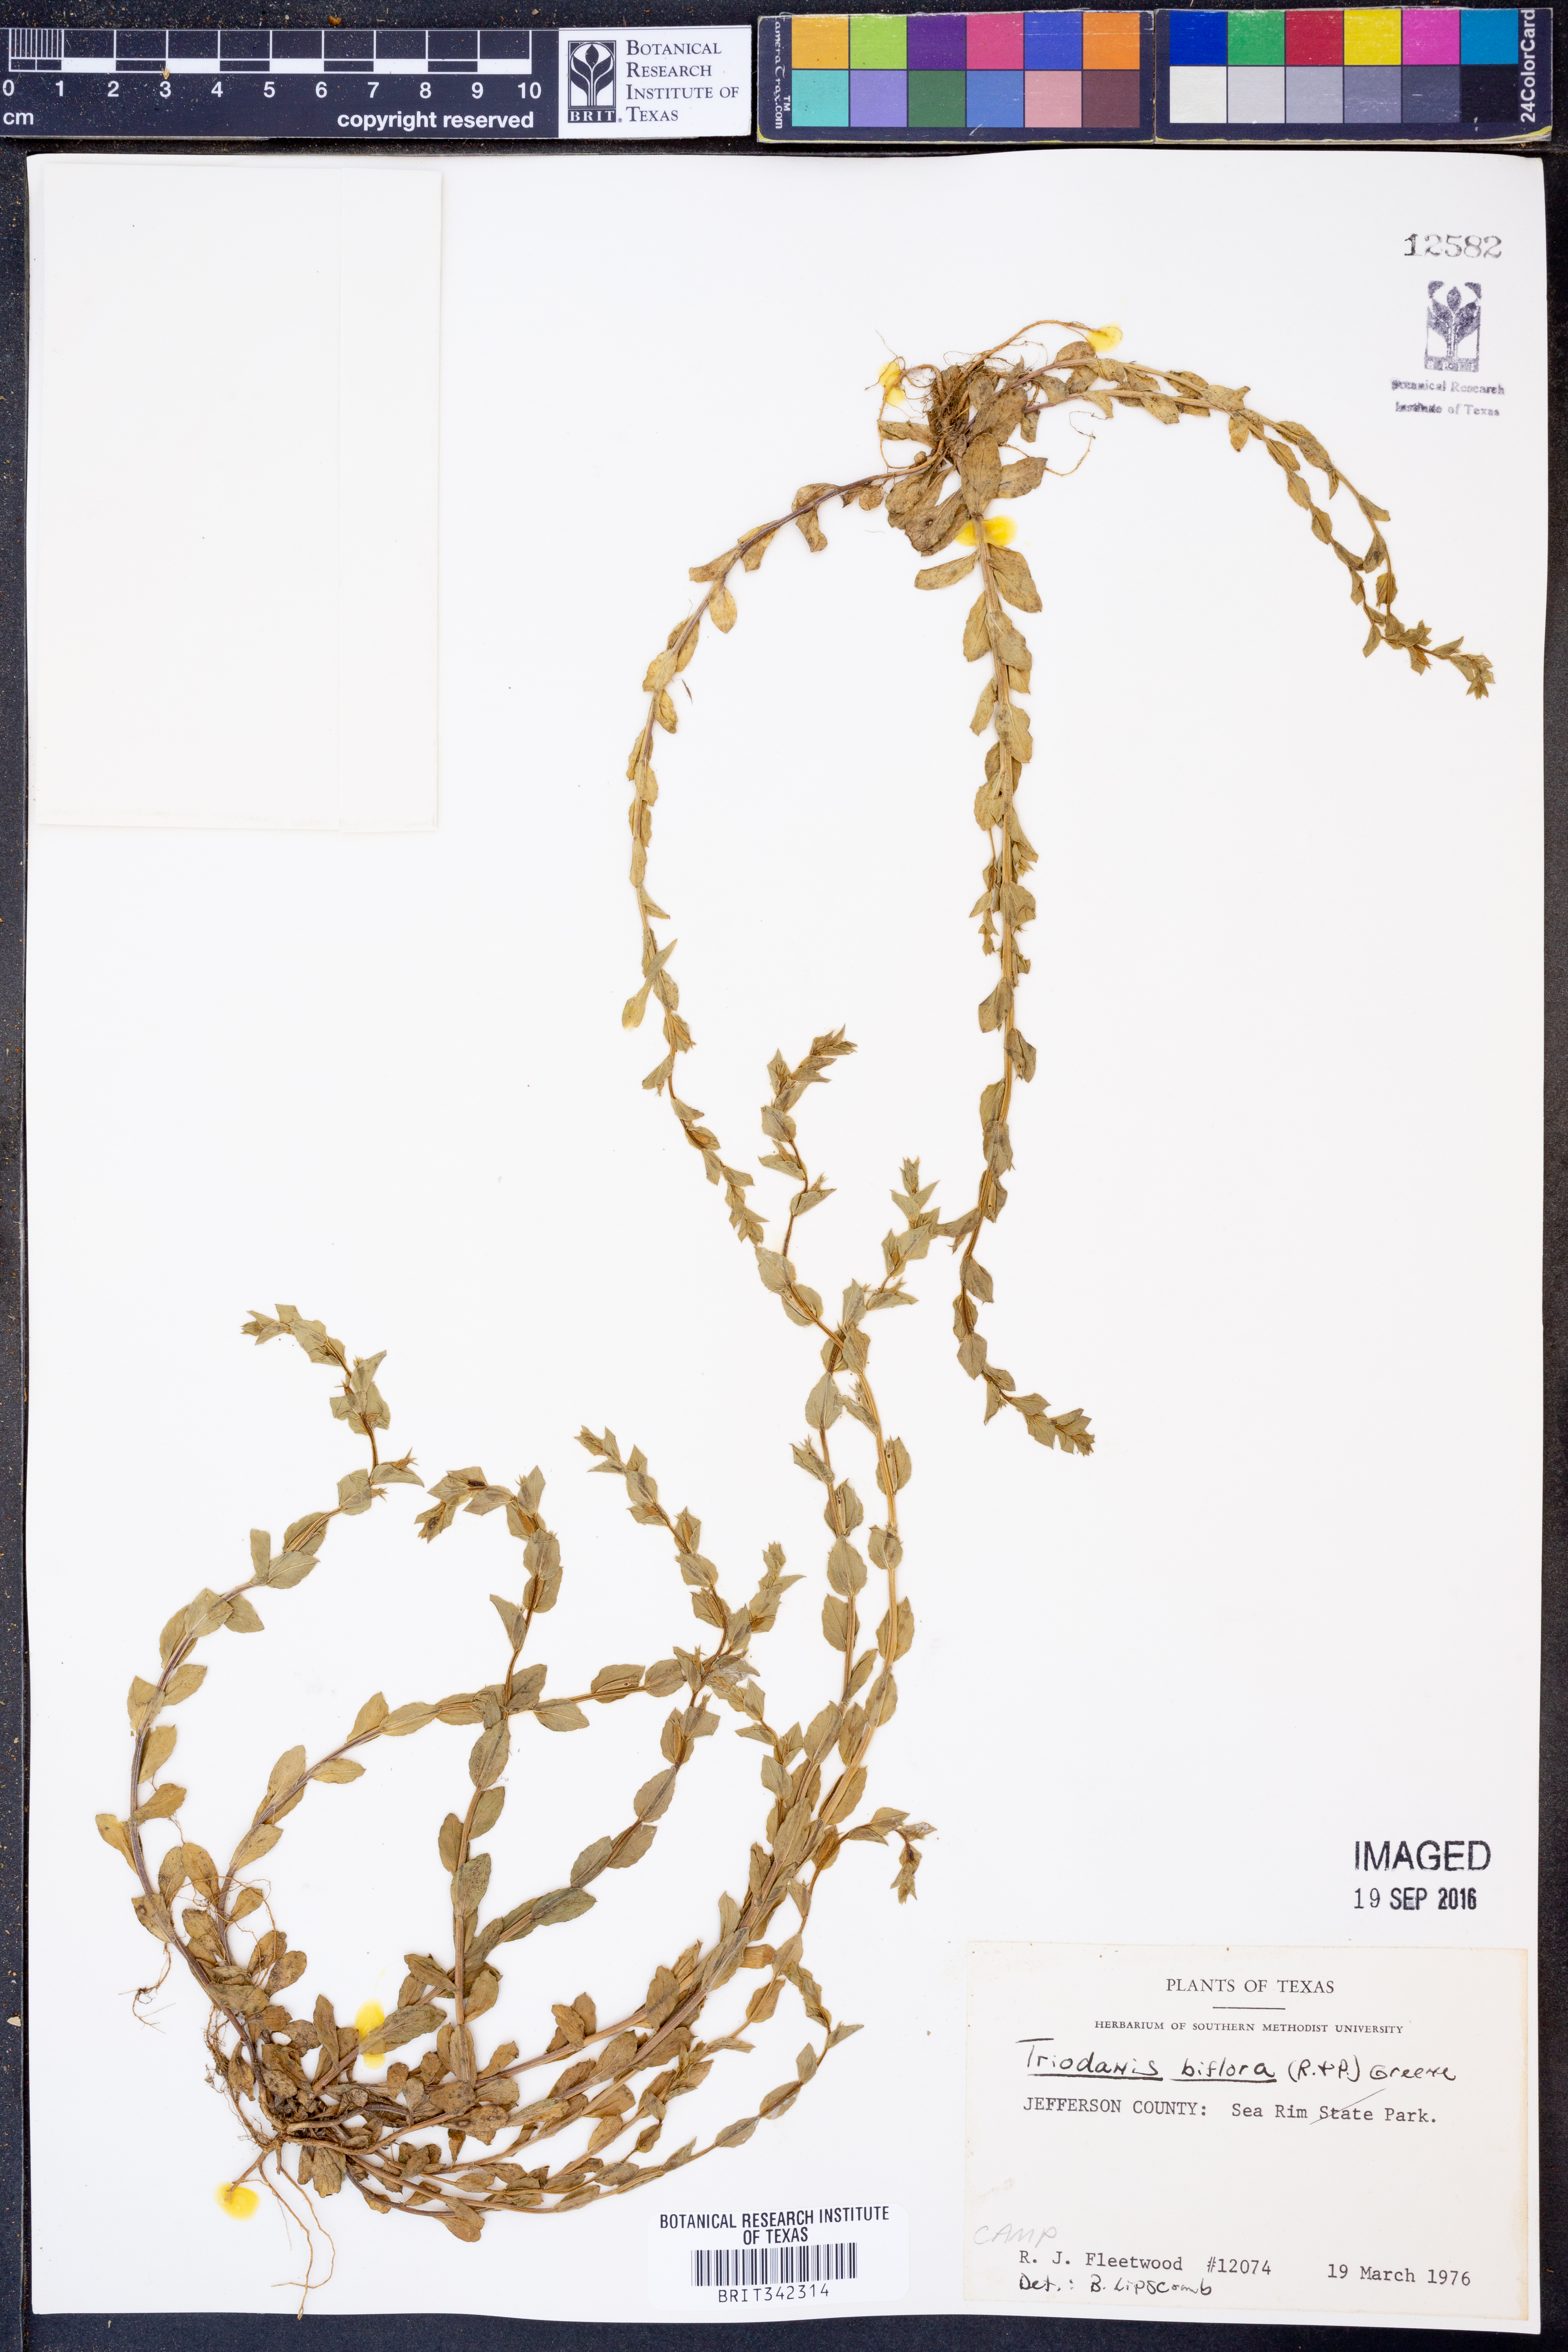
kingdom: Plantae
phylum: Tracheophyta
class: Magnoliopsida
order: Asterales
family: Campanulaceae
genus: Triodanis
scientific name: Triodanis perfoliata
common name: Clasping venus' looking-glass
